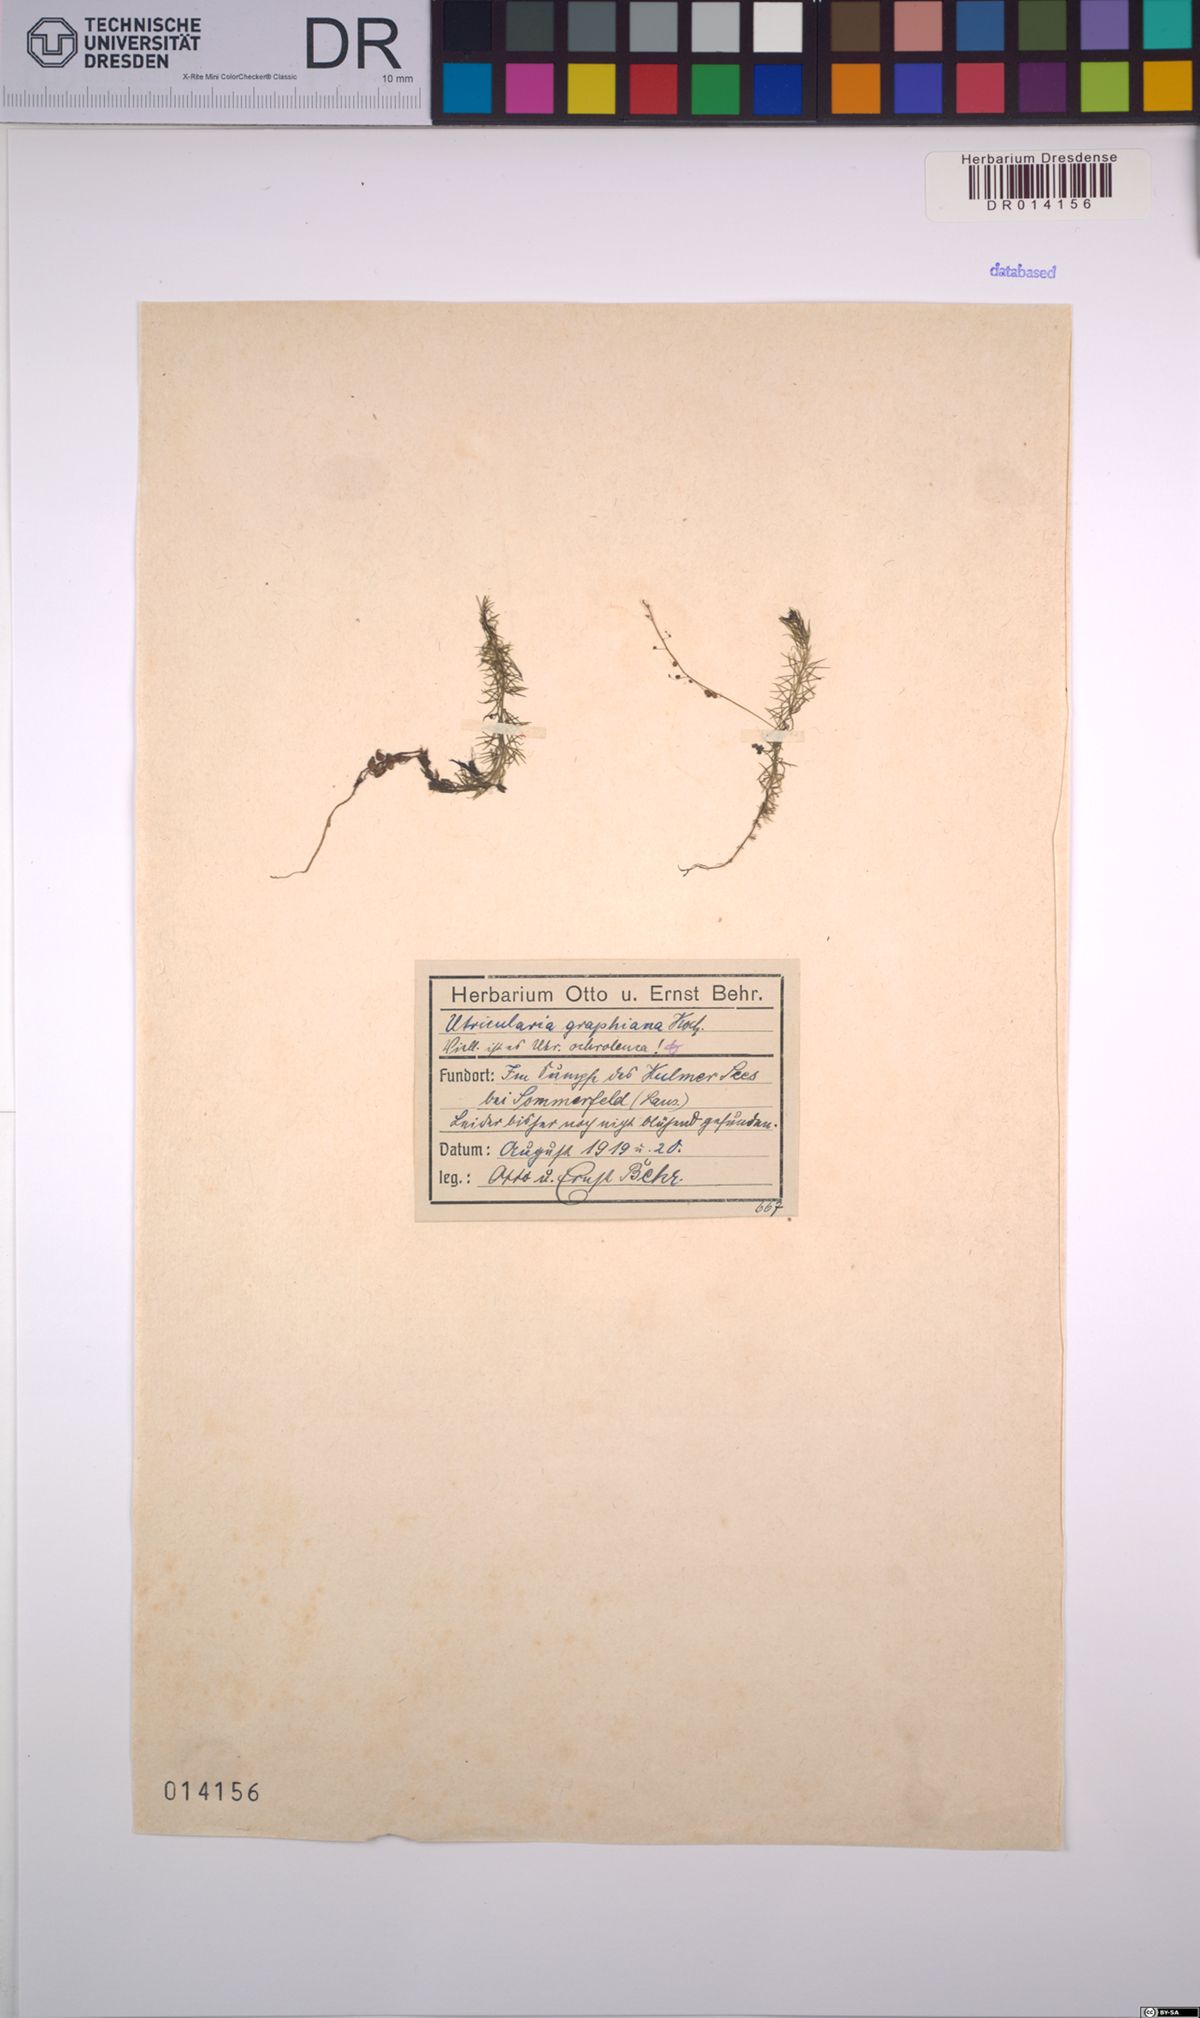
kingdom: Plantae
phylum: Tracheophyta
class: Magnoliopsida
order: Lamiales
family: Lentibulariaceae
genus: Utricularia
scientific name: Utricularia ochroleuca
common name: Pale bladderwort
